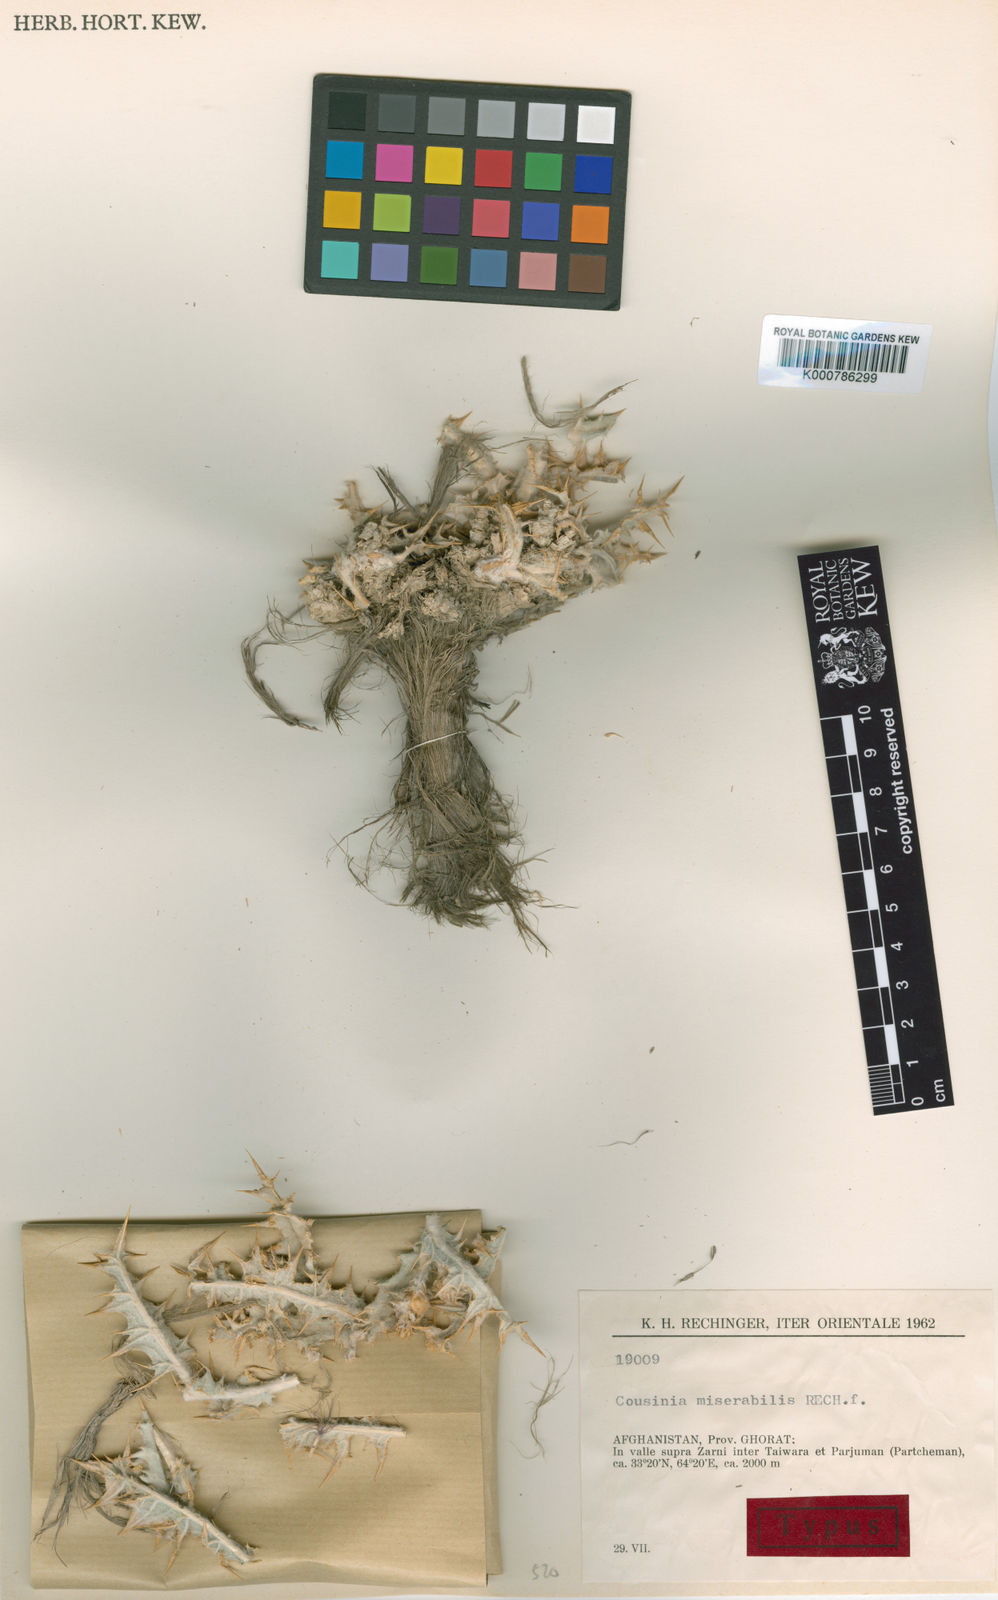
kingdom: Plantae
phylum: Tracheophyta
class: Magnoliopsida
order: Asterales
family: Asteraceae
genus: Cousinia
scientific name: Cousinia
